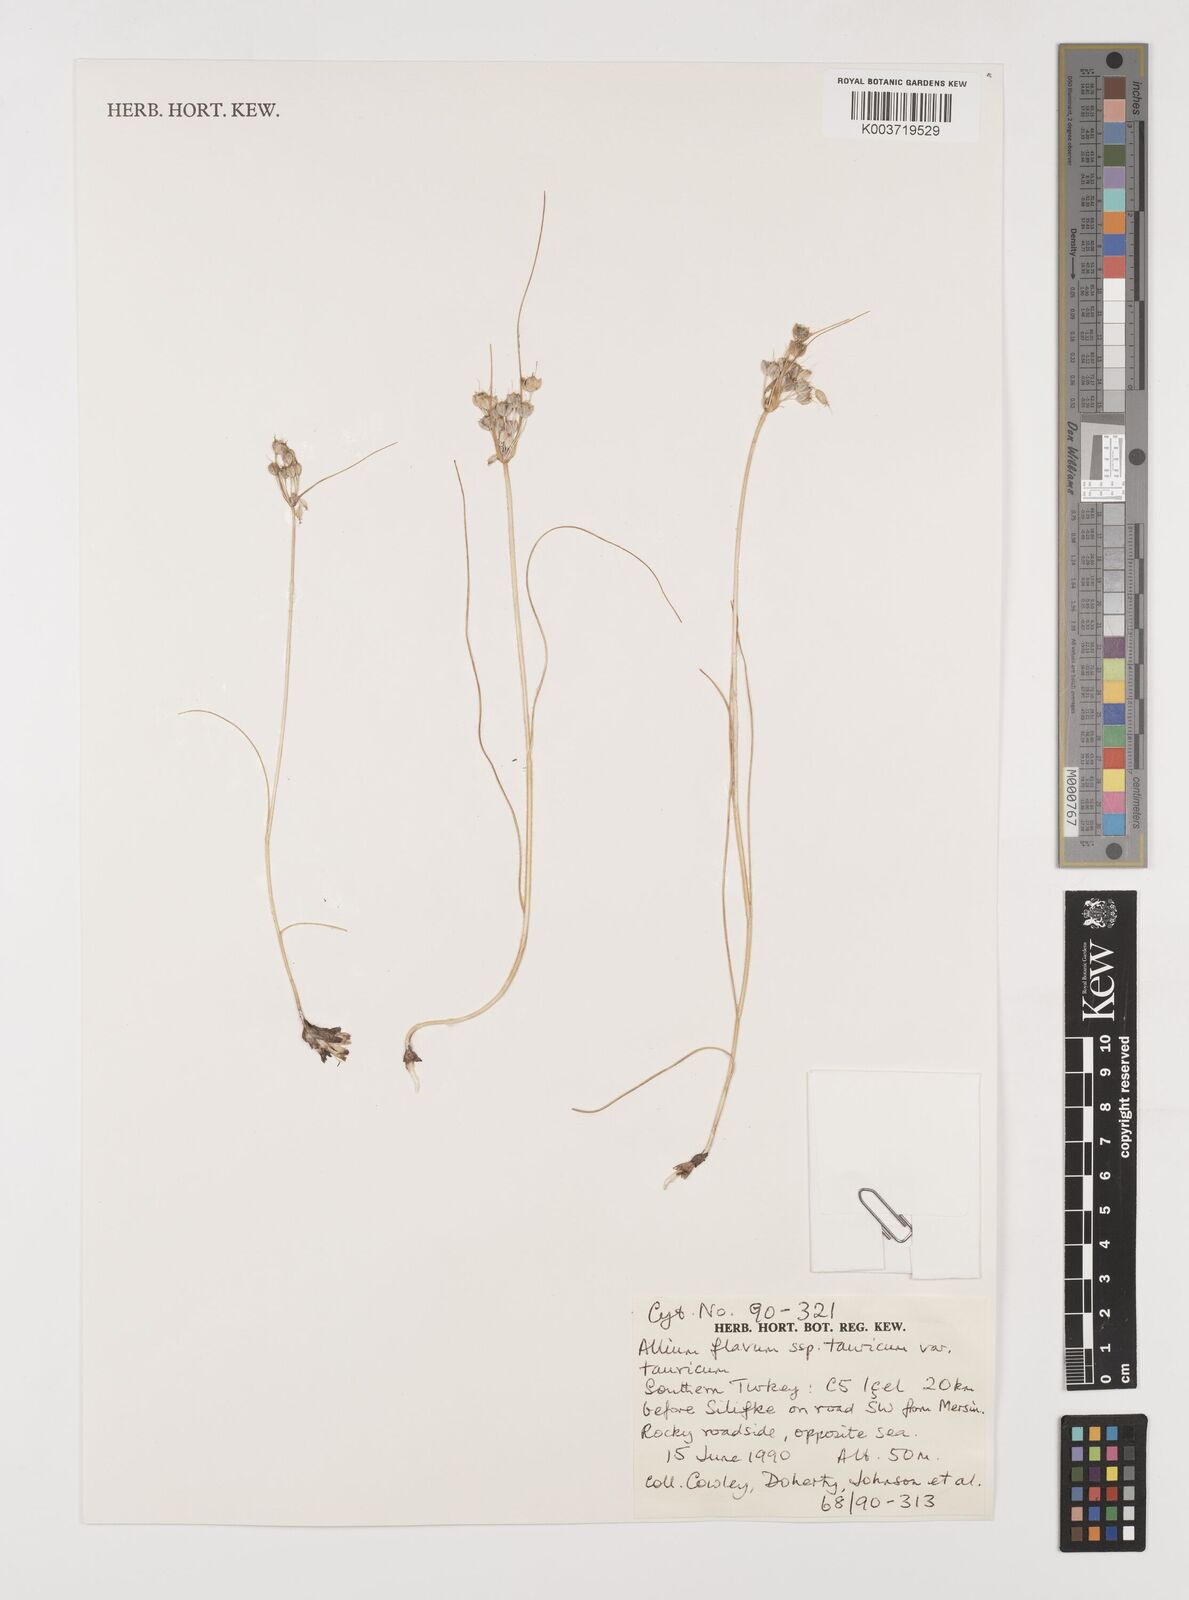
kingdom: Plantae
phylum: Tracheophyta
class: Liliopsida
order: Asparagales
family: Amaryllidaceae
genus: Allium
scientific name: Allium flavum
